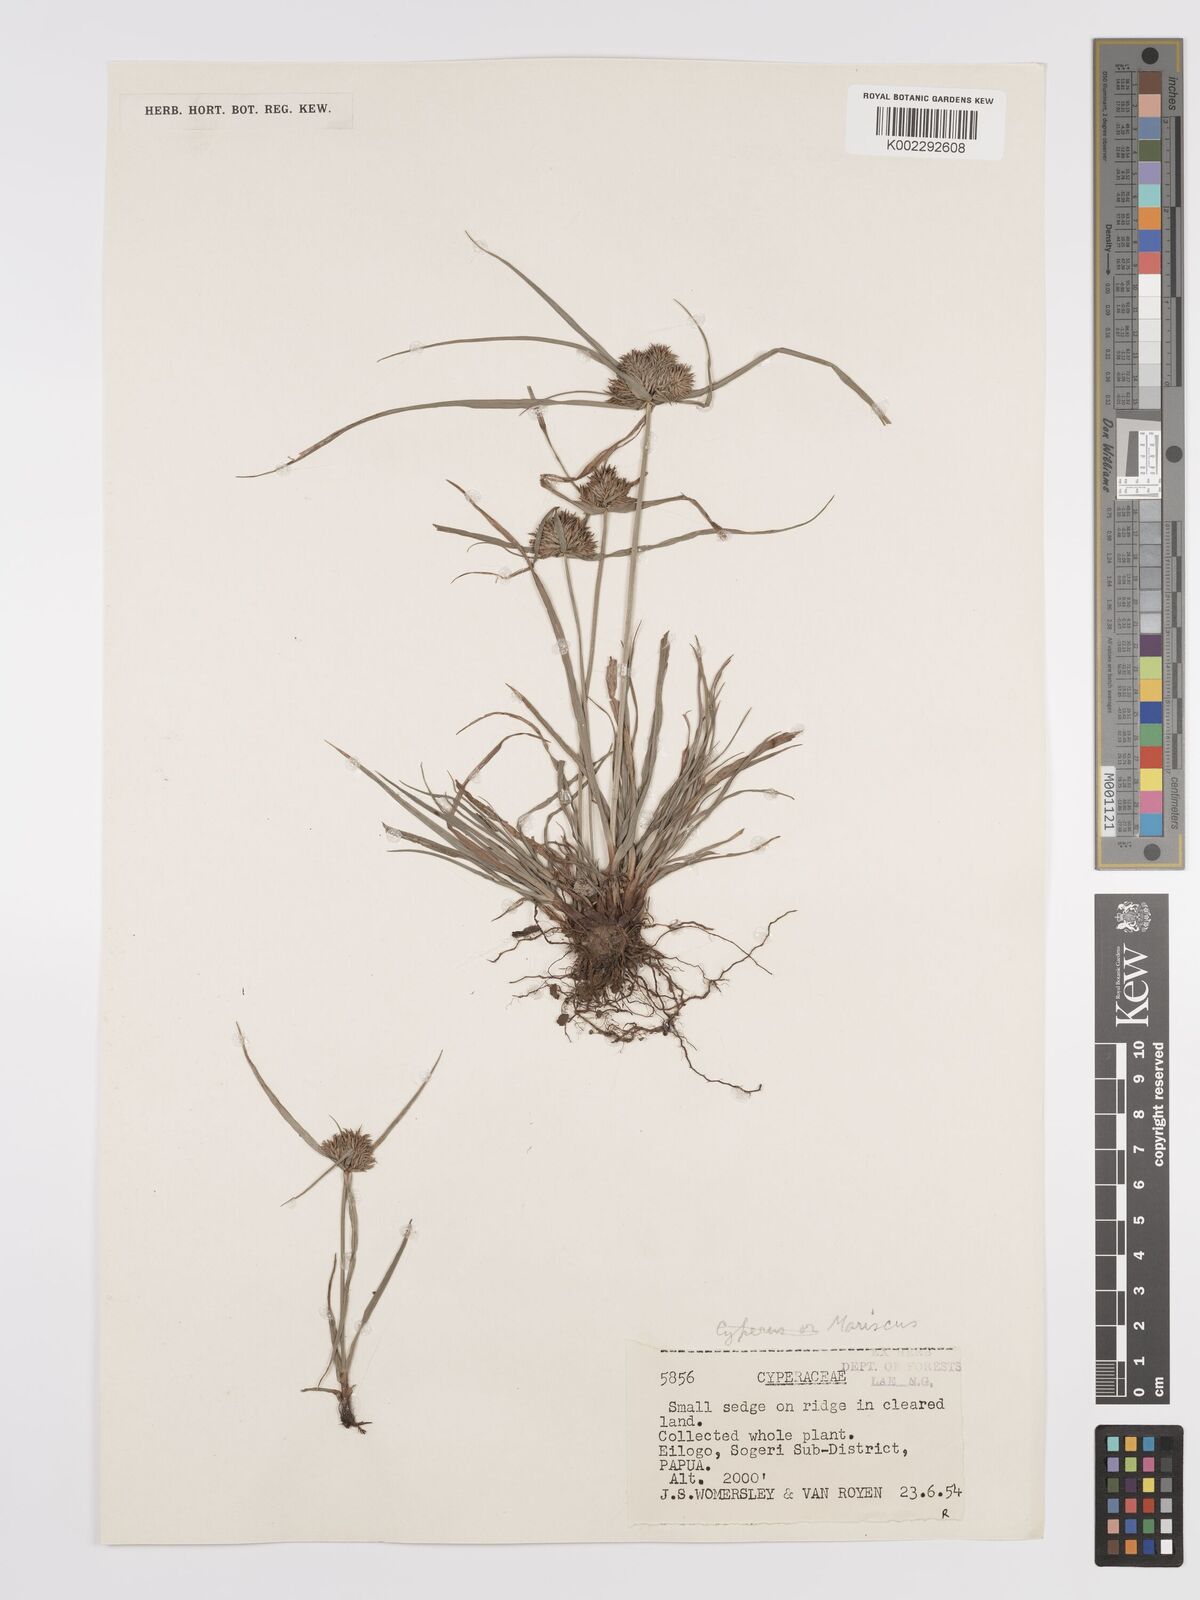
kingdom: Plantae
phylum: Tracheophyta
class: Liliopsida
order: Poales
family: Cyperaceae
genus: Cyperus
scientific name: Cyperus cyperinus
